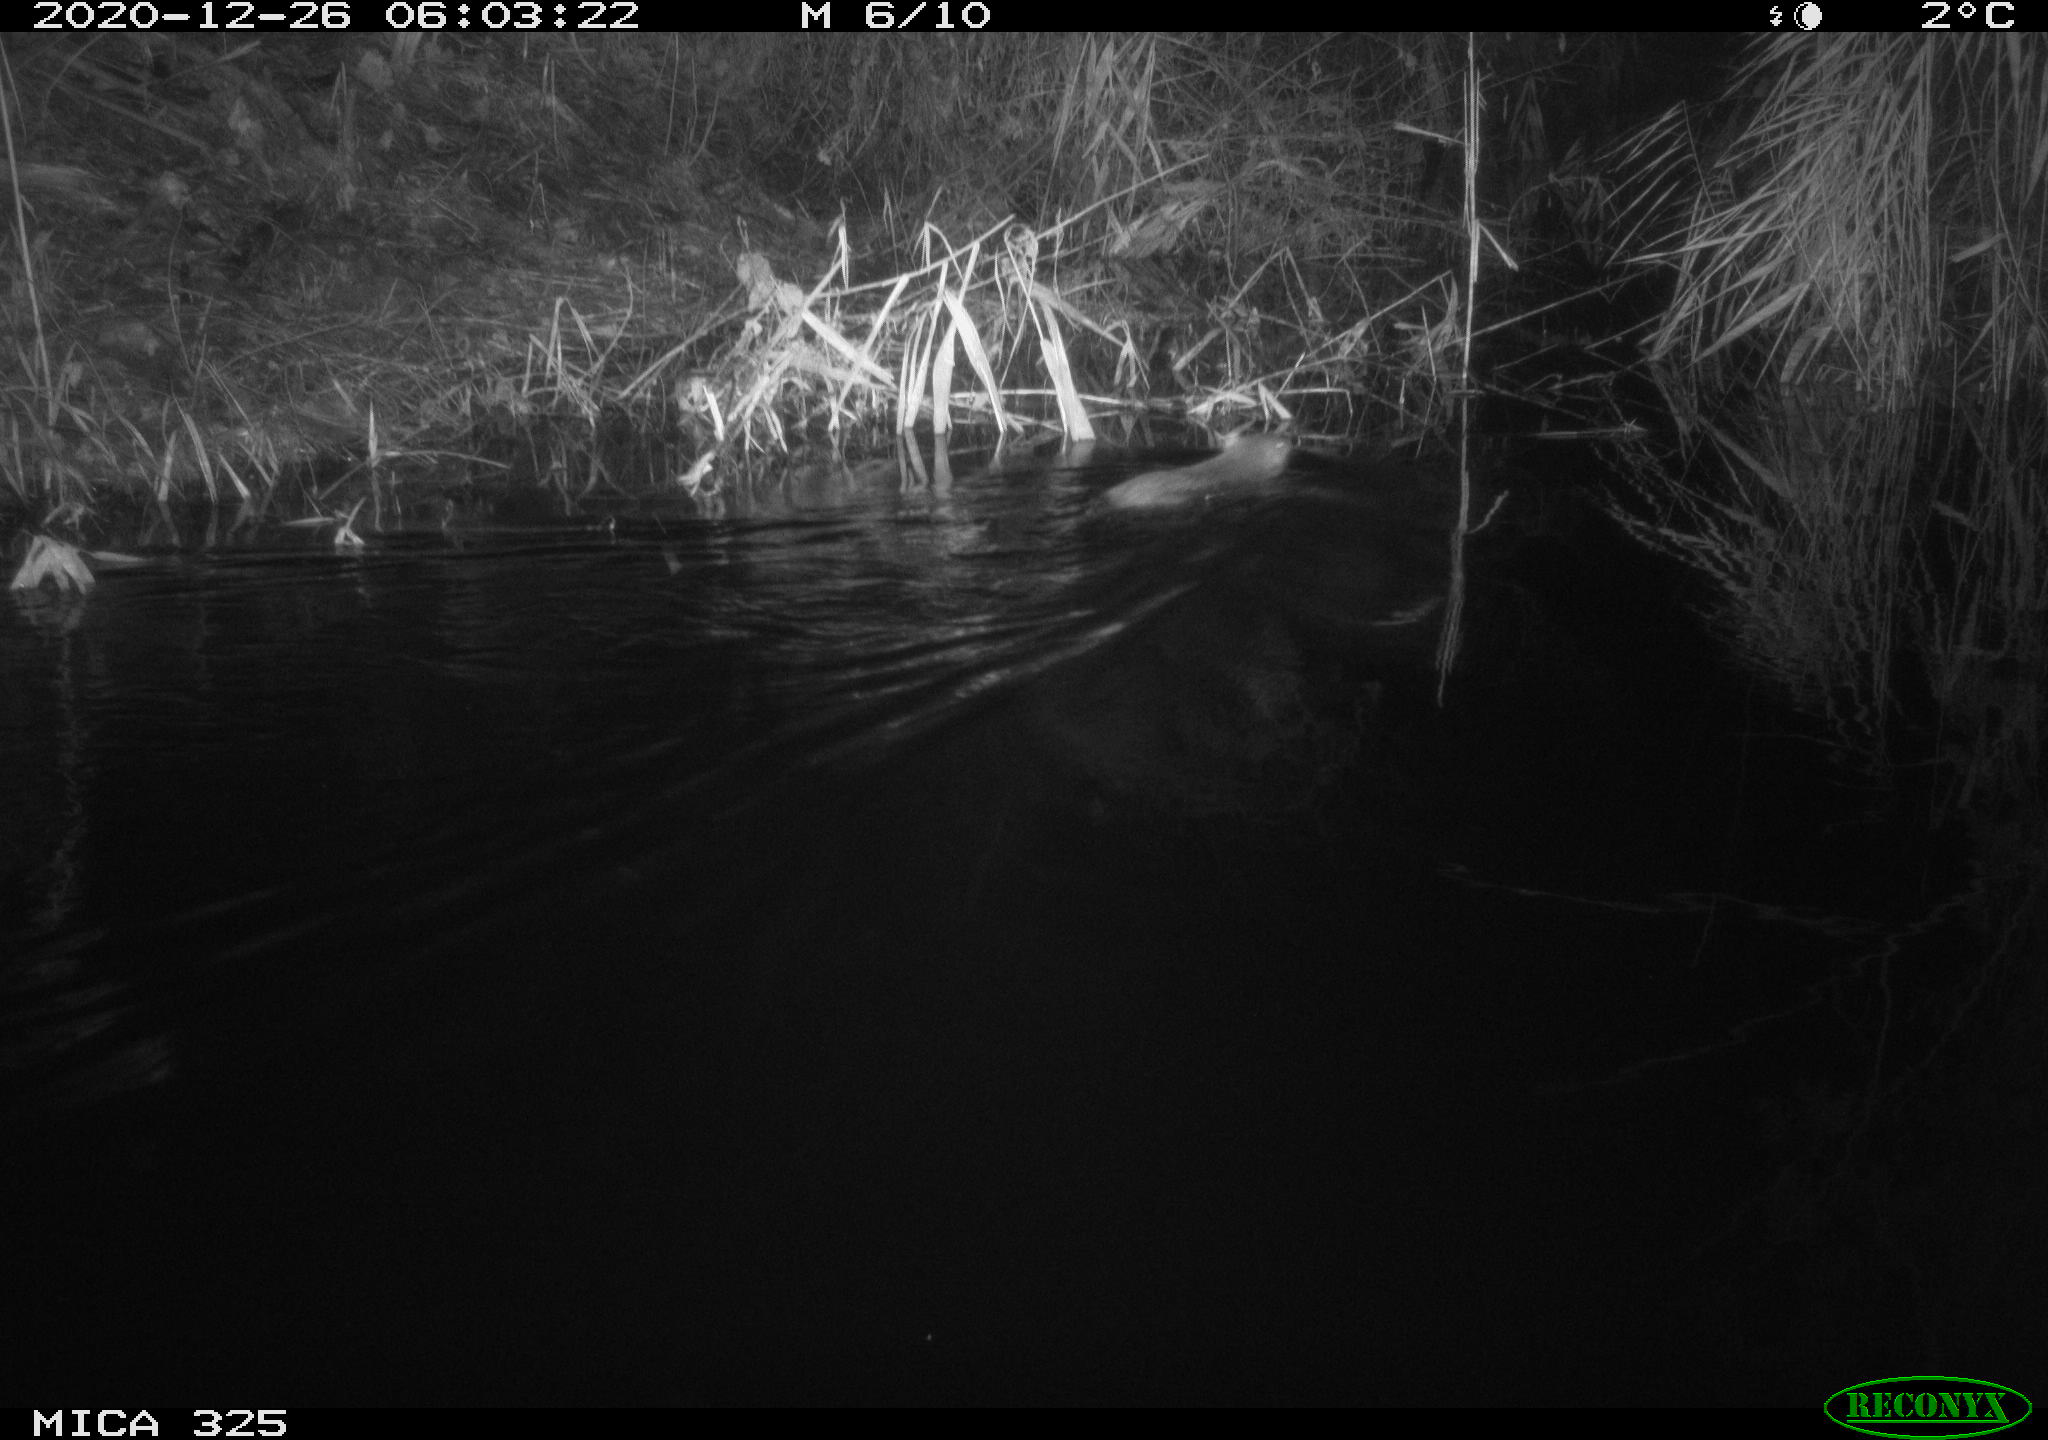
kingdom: Animalia
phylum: Chordata
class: Mammalia
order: Rodentia
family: Myocastoridae
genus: Myocastor
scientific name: Myocastor coypus
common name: Coypu
